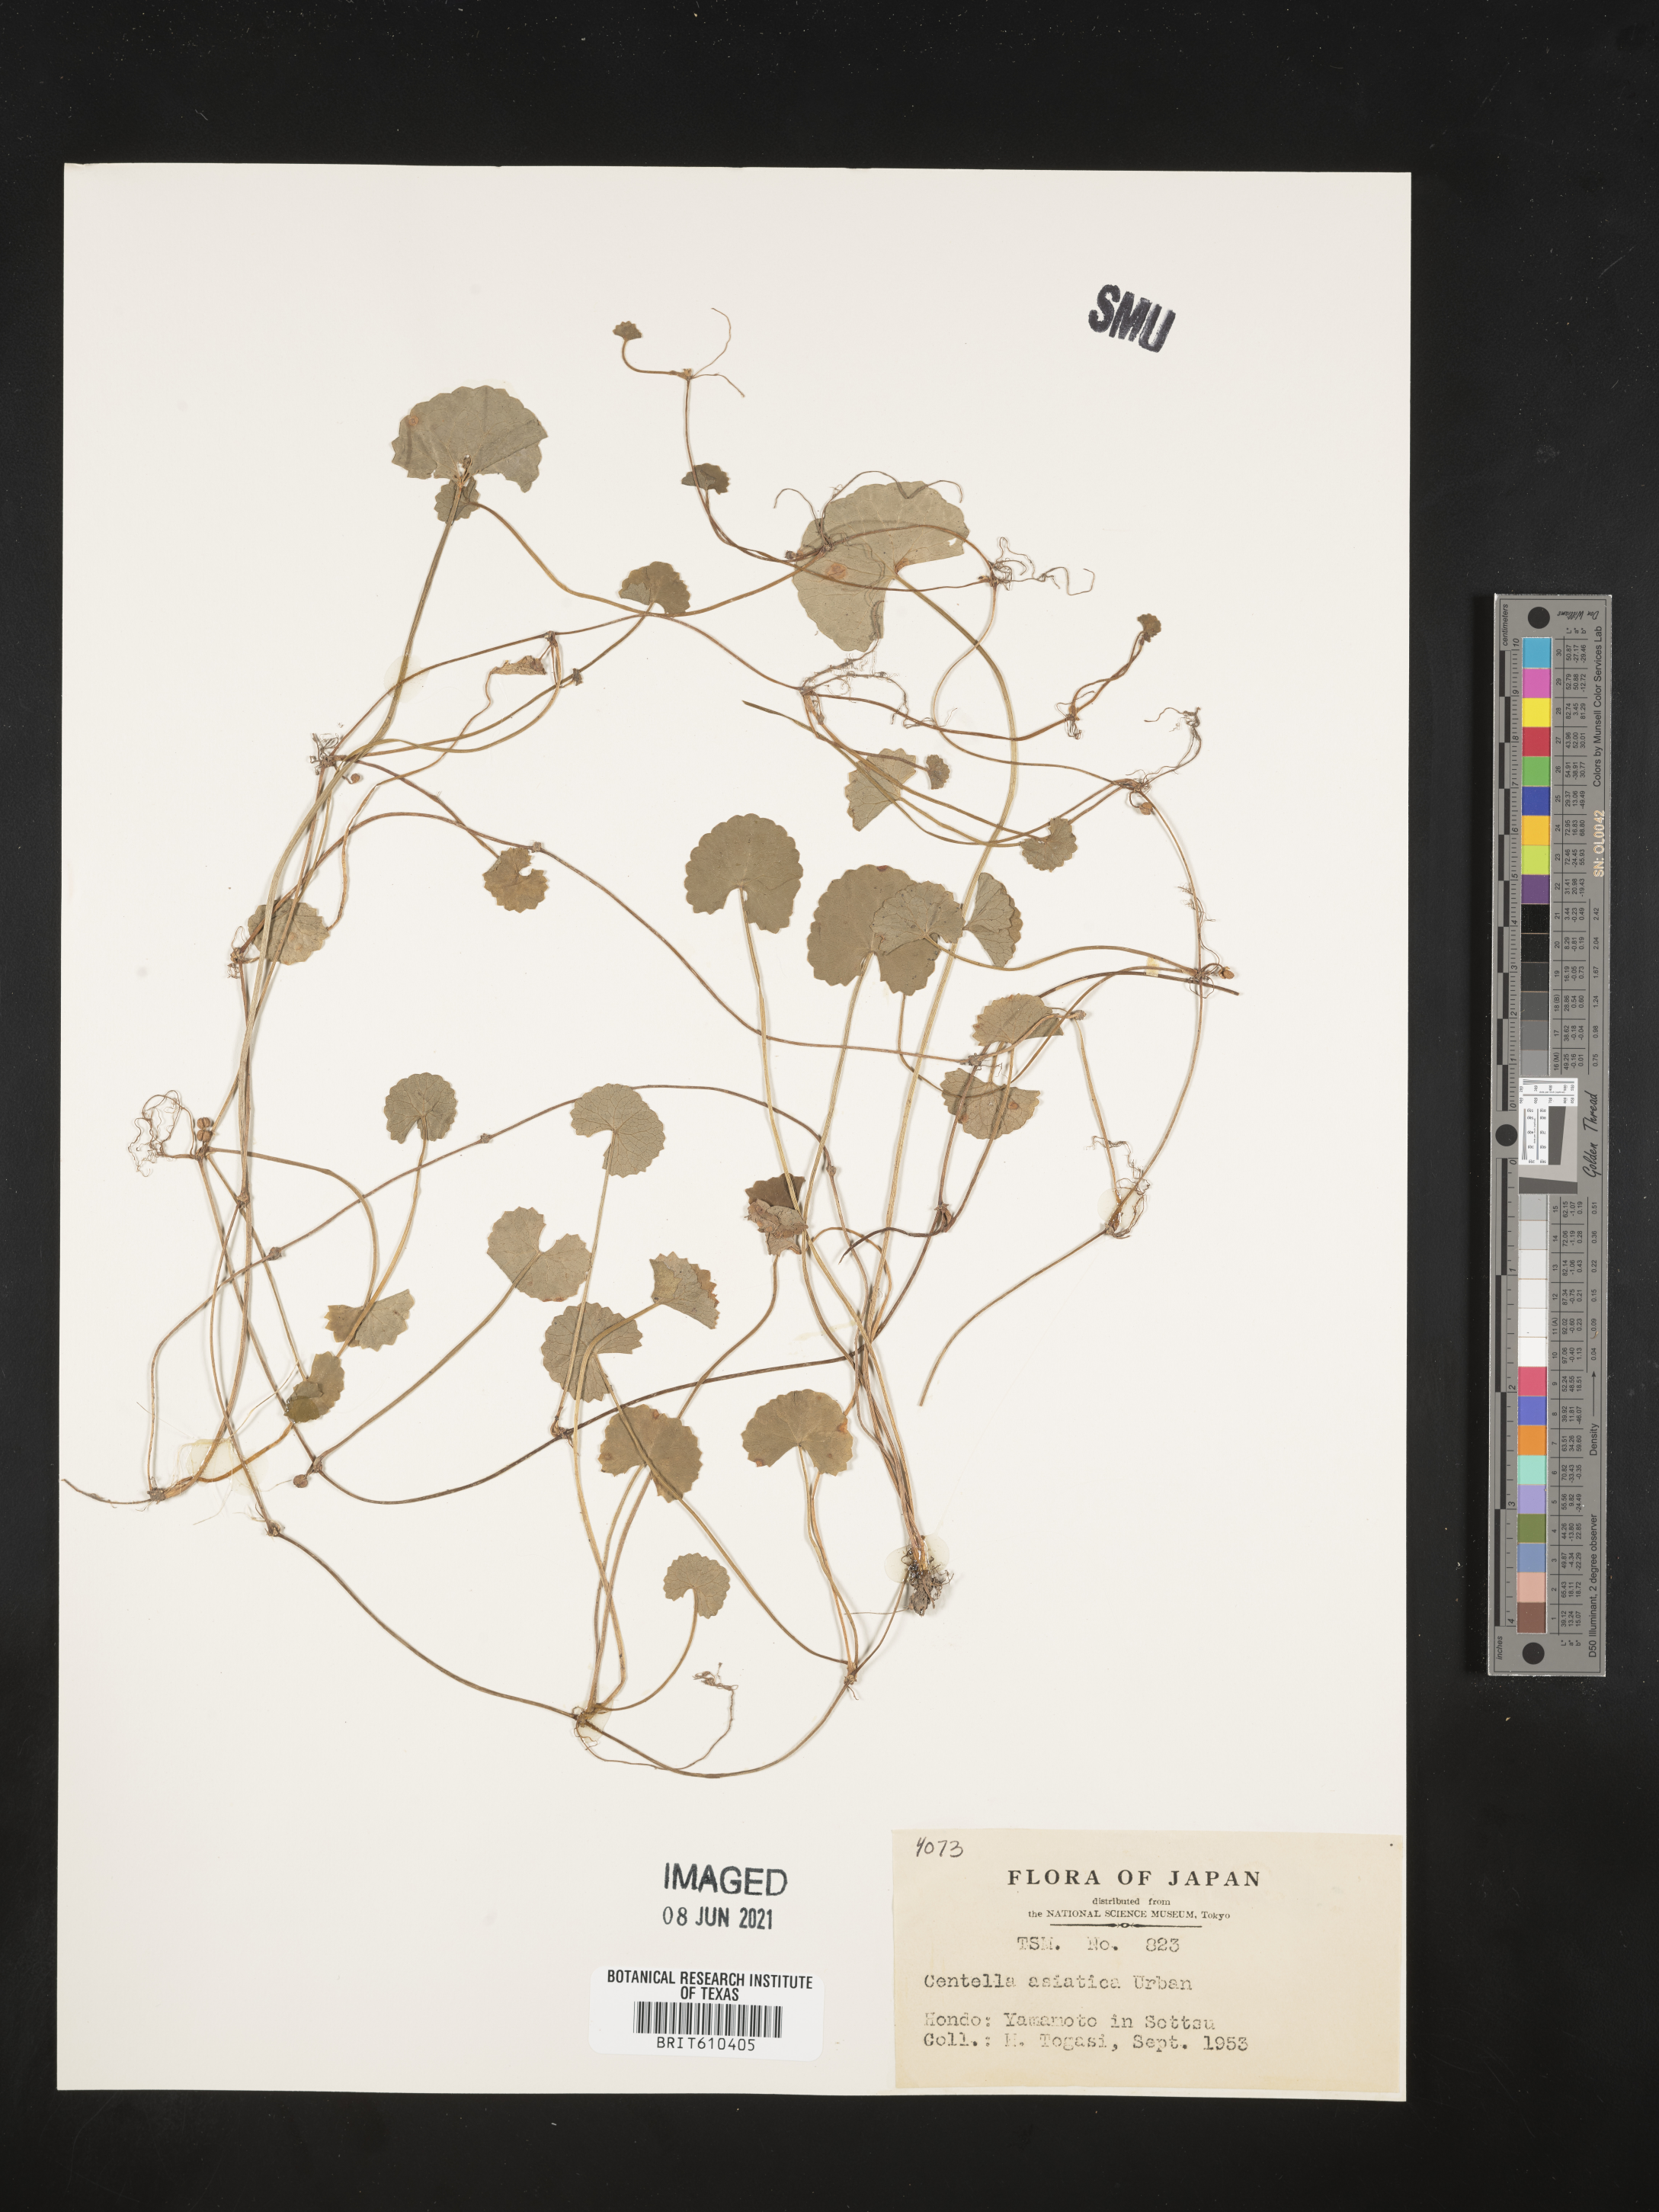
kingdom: Plantae
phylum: Tracheophyta
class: Magnoliopsida
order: Apiales
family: Apiaceae
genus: Centella
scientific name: Centella asiatica
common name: Spadeleaf
